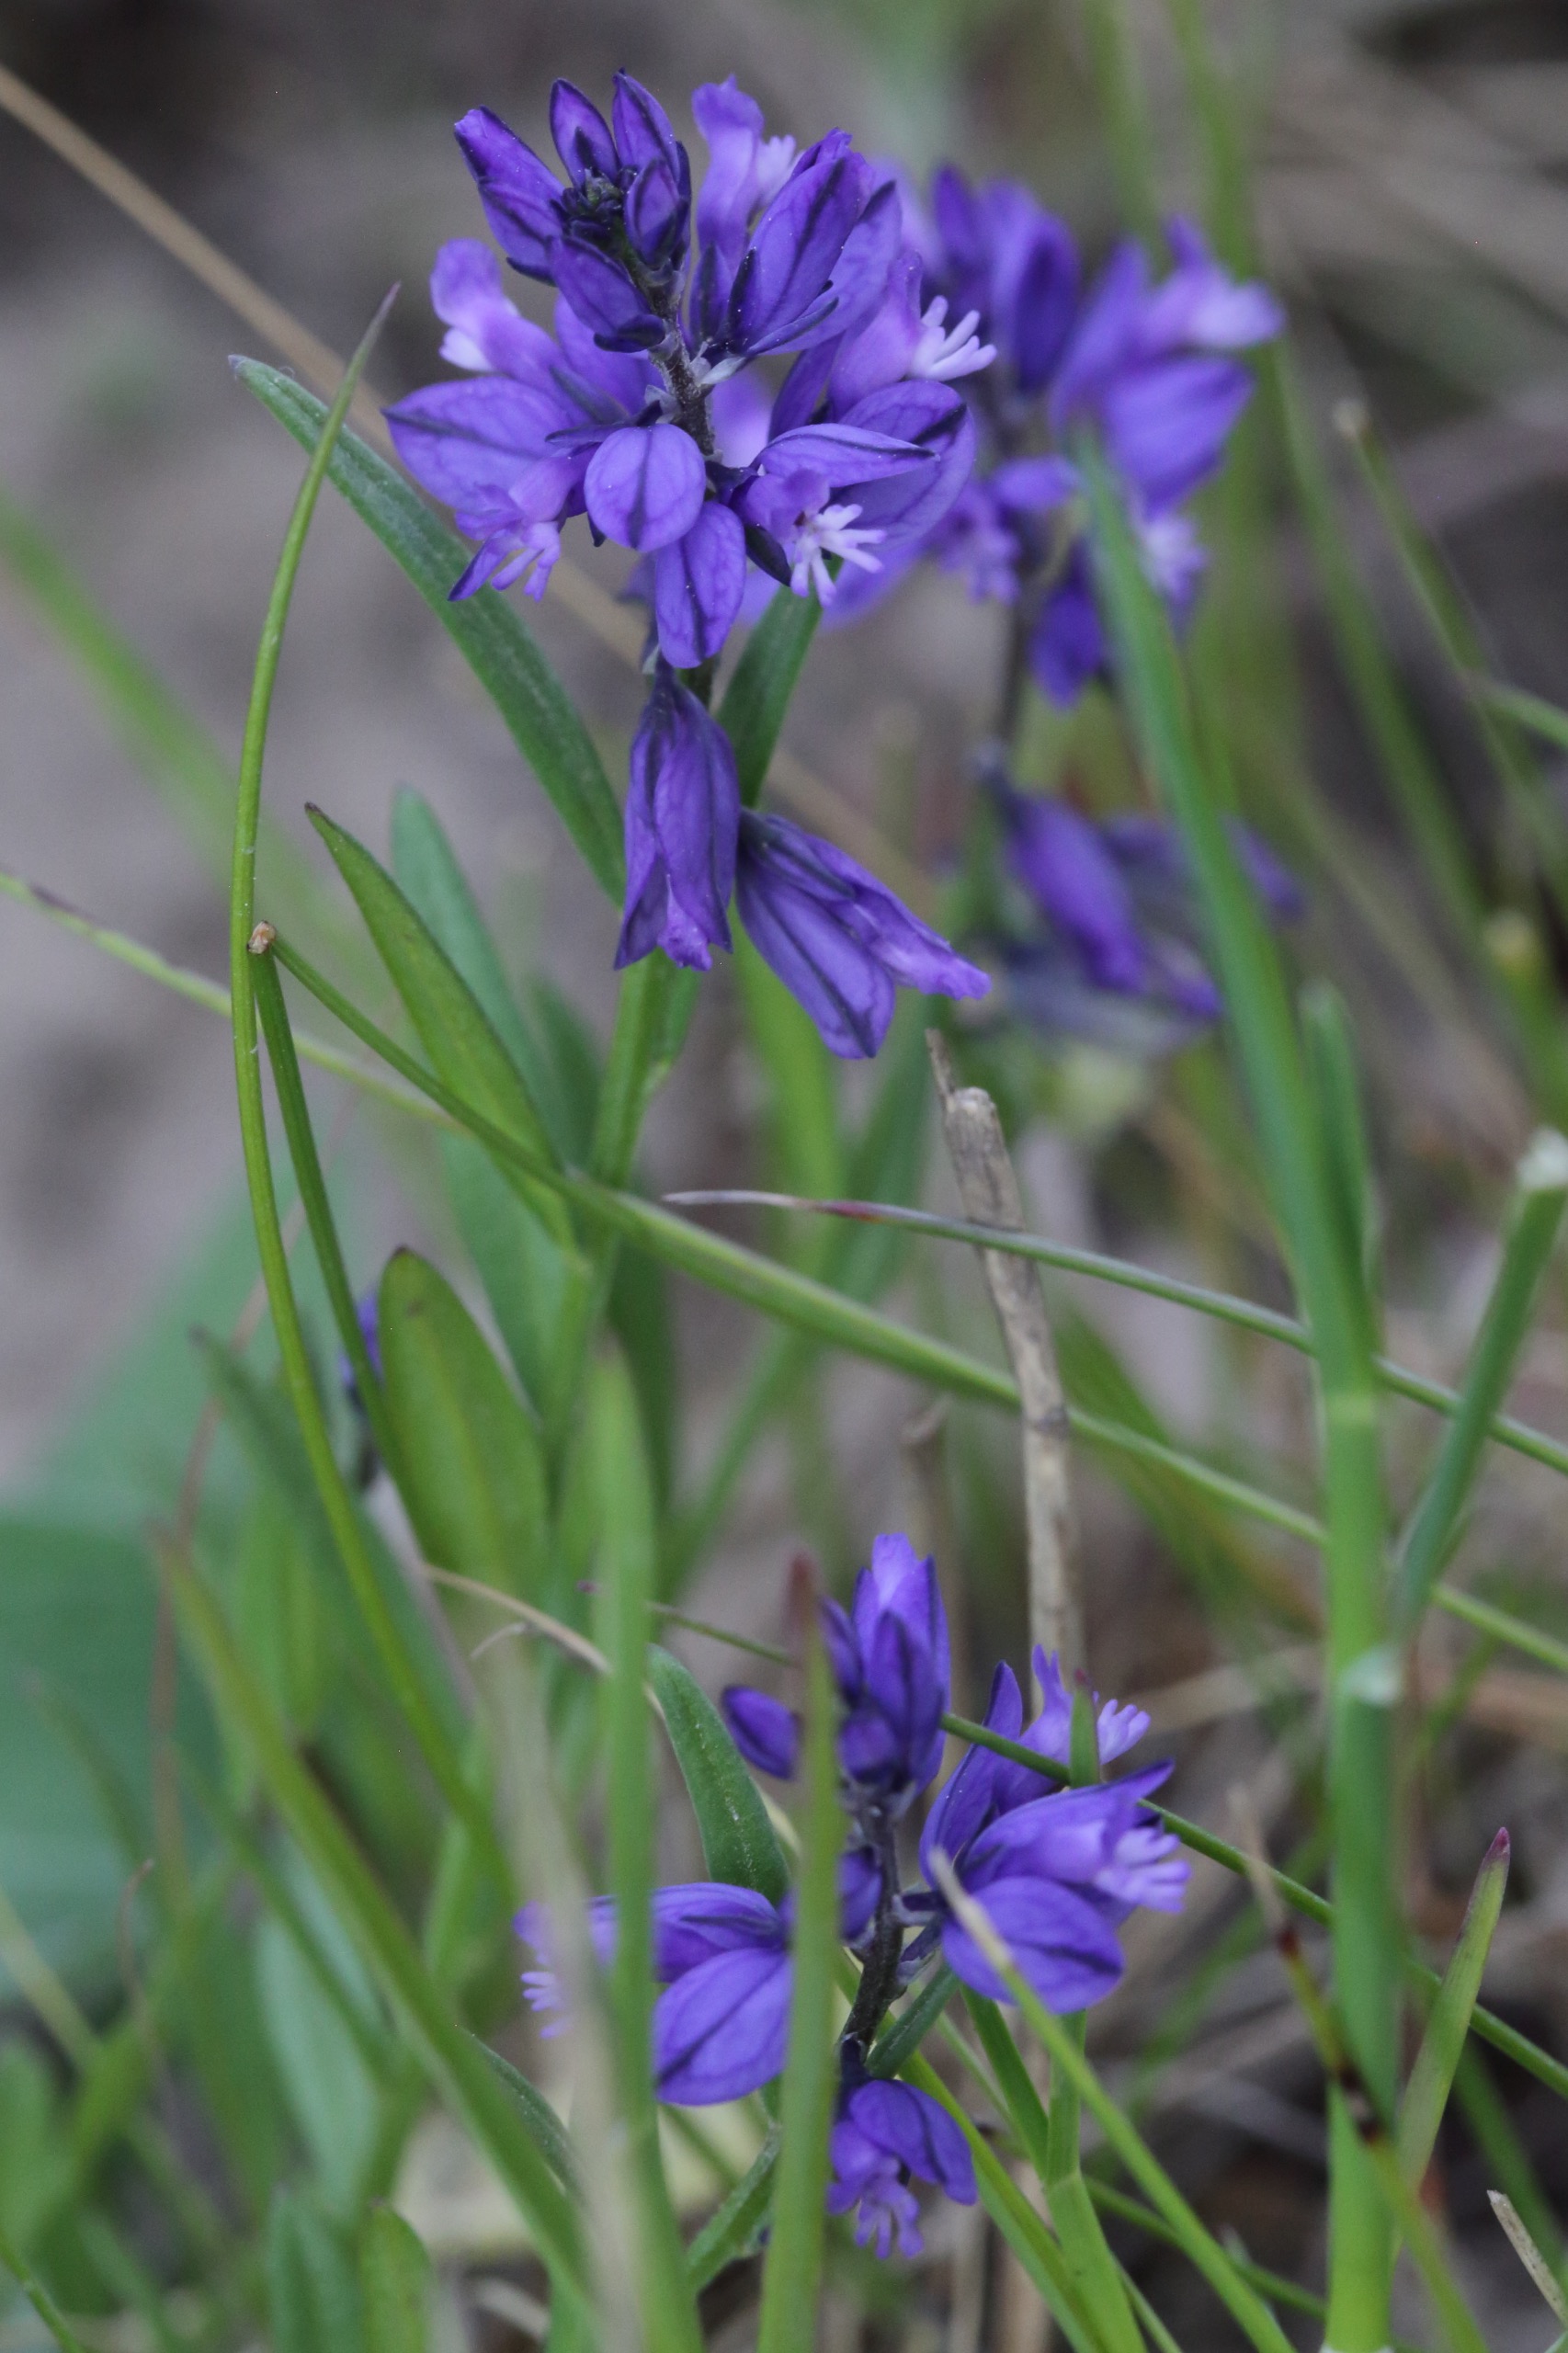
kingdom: Plantae
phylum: Tracheophyta
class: Magnoliopsida
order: Fabales
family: Polygalaceae
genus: Polygala
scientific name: Polygala vulgaris
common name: Almindelig mælkeurt
